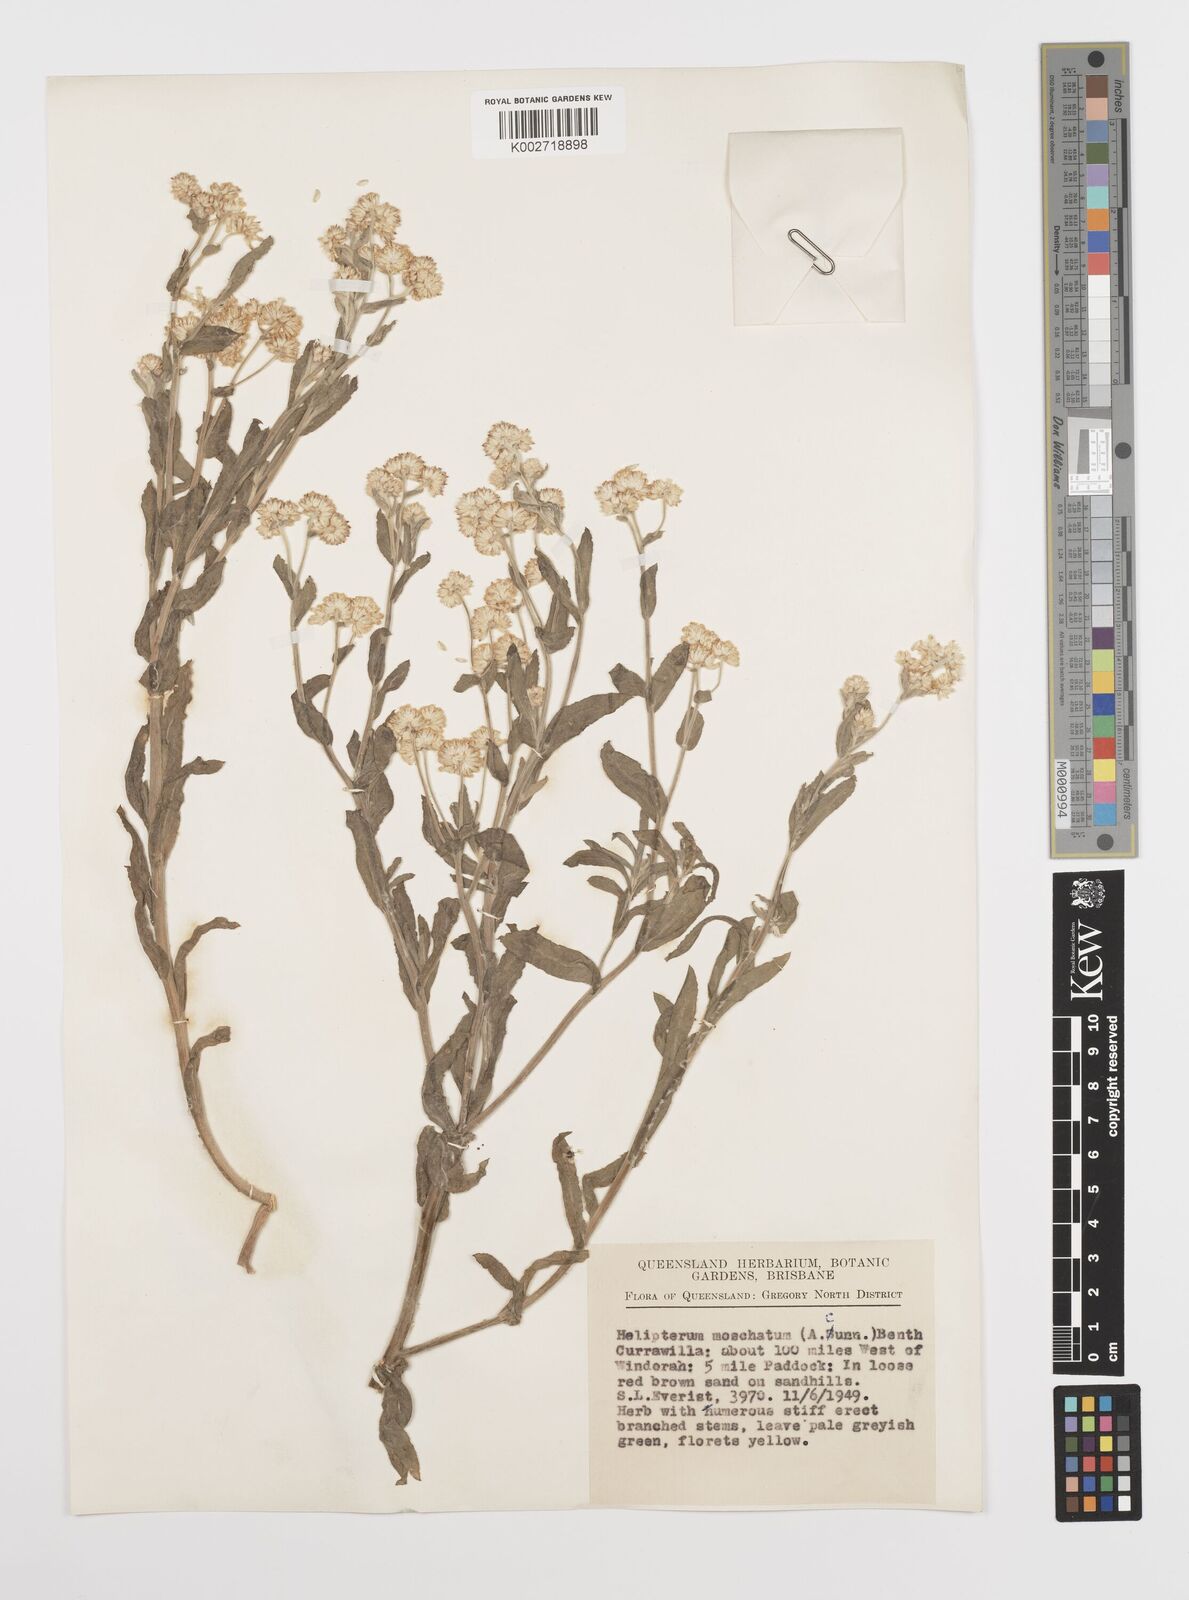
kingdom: Plantae
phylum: Tracheophyta
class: Magnoliopsida
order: Asterales
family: Asteraceae
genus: Rhodanthe
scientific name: Rhodanthe moschata
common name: Musk sunray
